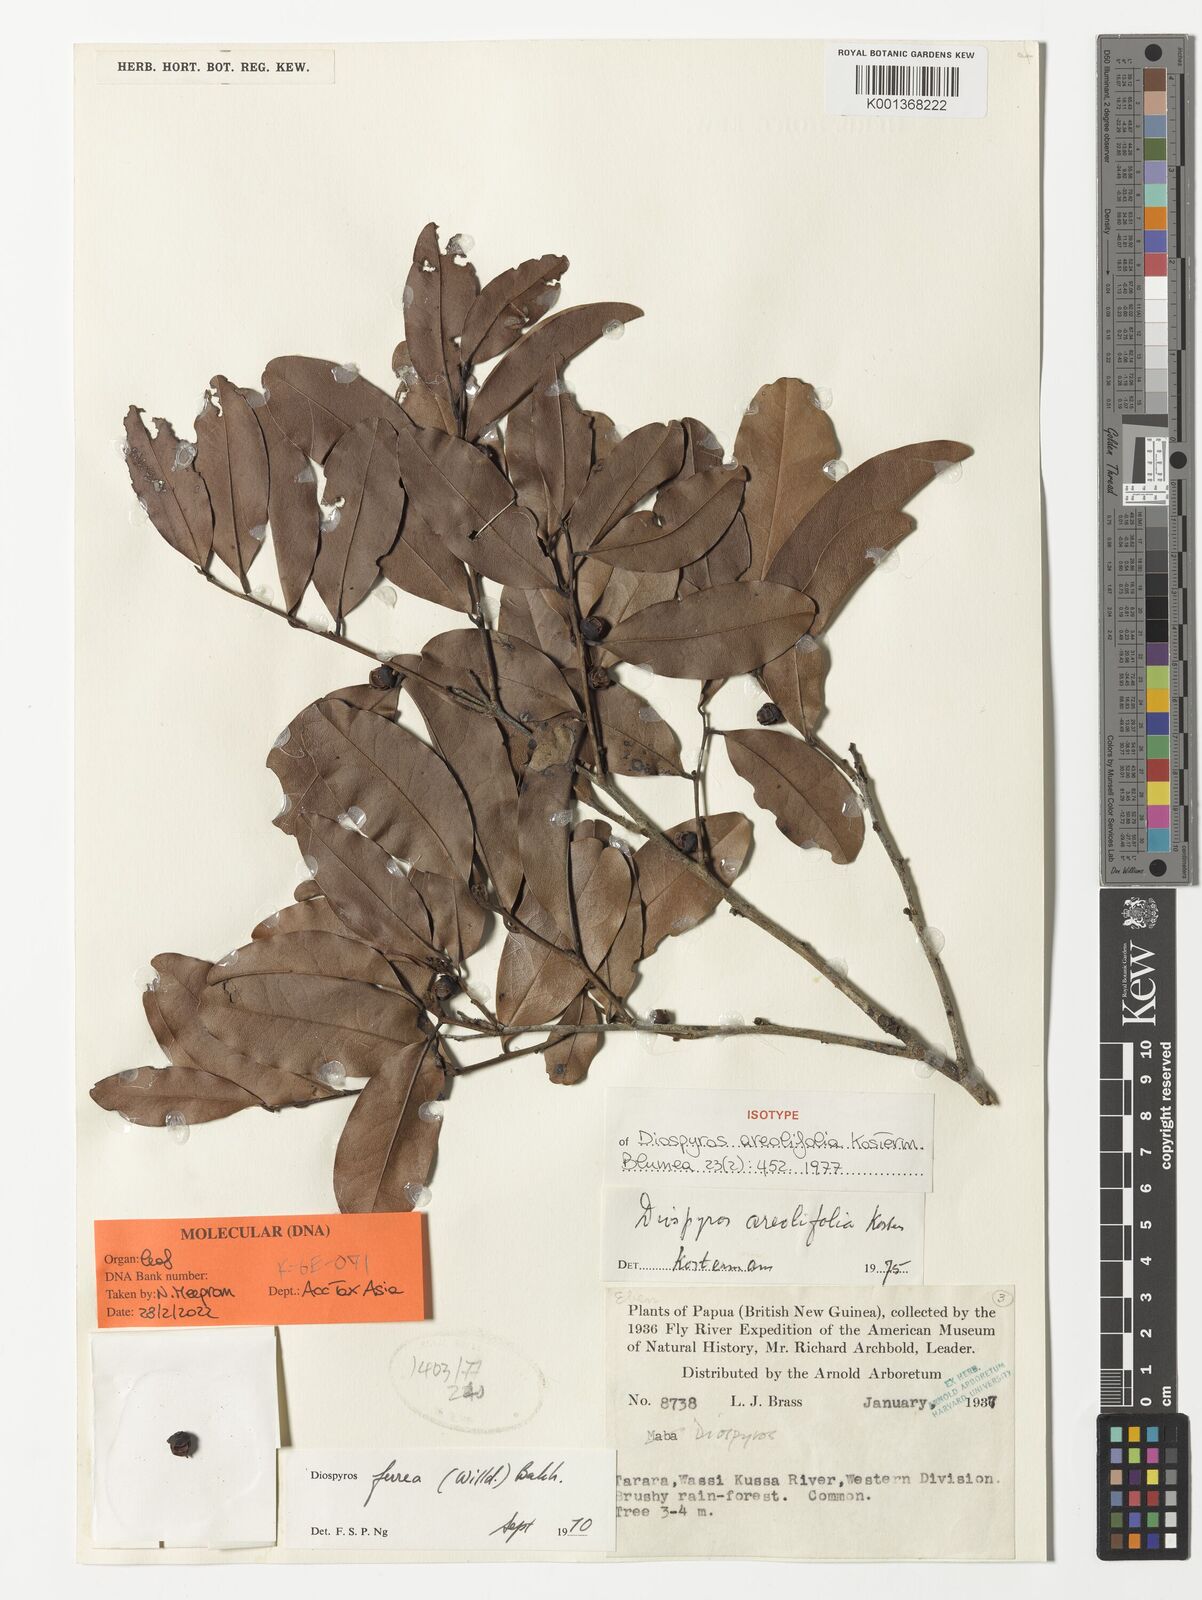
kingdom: Plantae
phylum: Tracheophyta
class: Magnoliopsida
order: Ericales
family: Ebenaceae
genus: Diospyros
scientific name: Diospyros areolifolia
